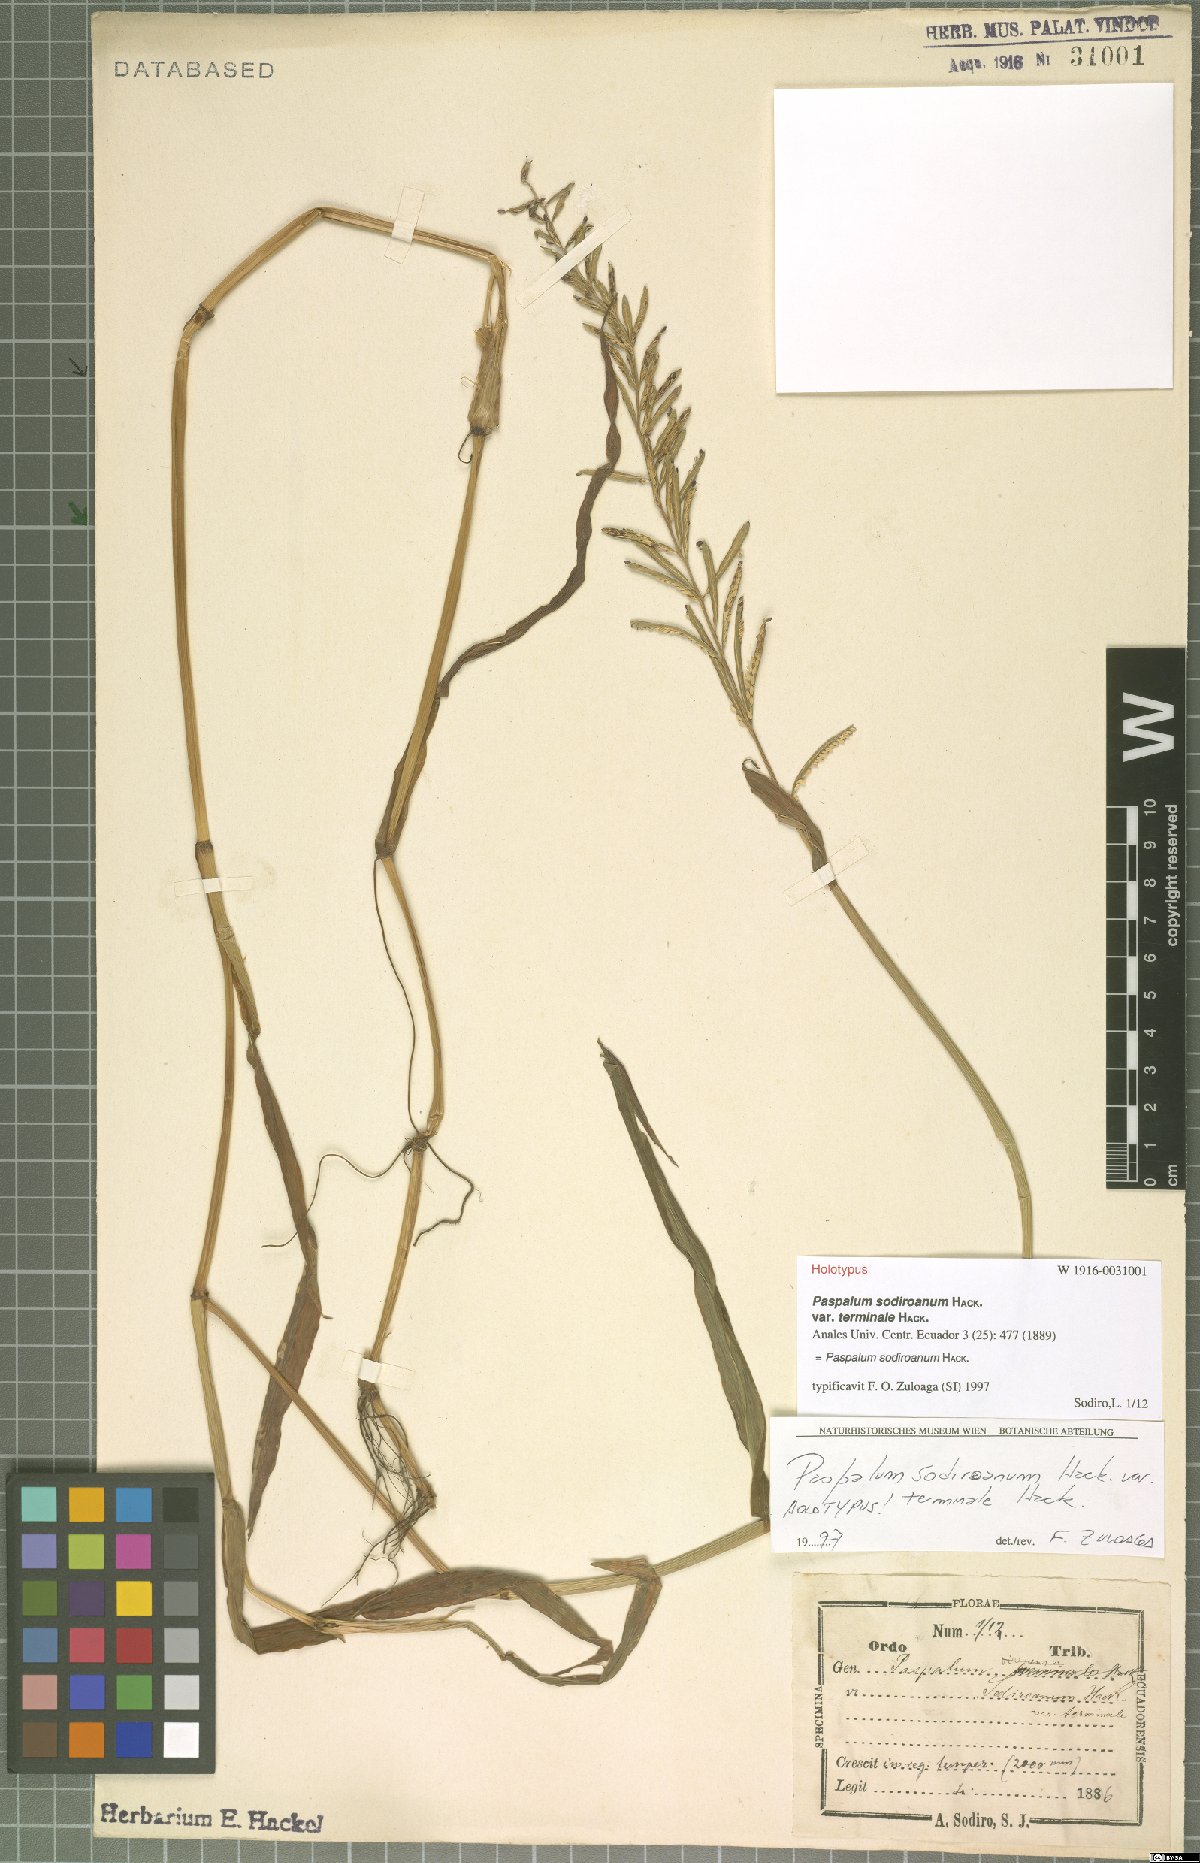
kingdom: Plantae
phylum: Tracheophyta
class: Liliopsida
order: Poales
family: Poaceae
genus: Paspalum
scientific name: Paspalum sodiroanum
